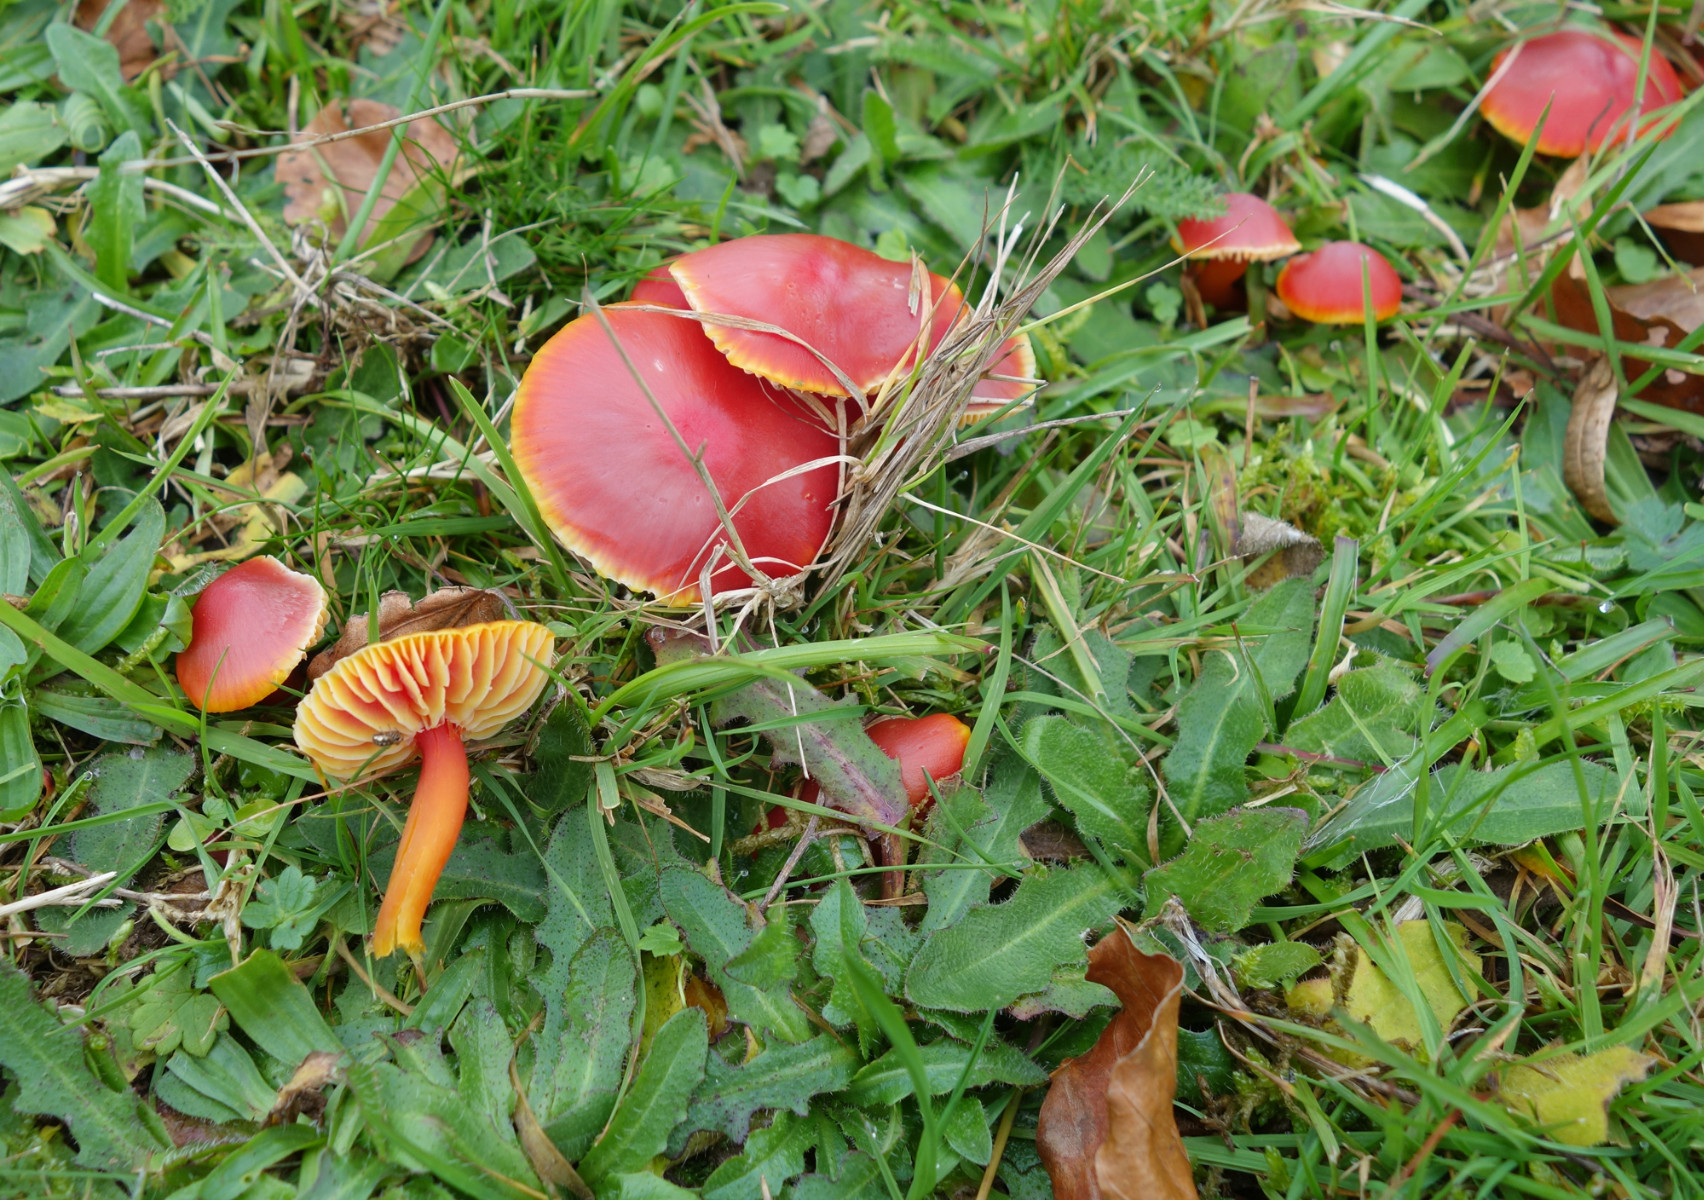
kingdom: Fungi
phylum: Basidiomycota
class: Agaricomycetes
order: Agaricales
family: Hygrophoraceae
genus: Hygrocybe
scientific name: Hygrocybe coccinea
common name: cinnober-vokshat
